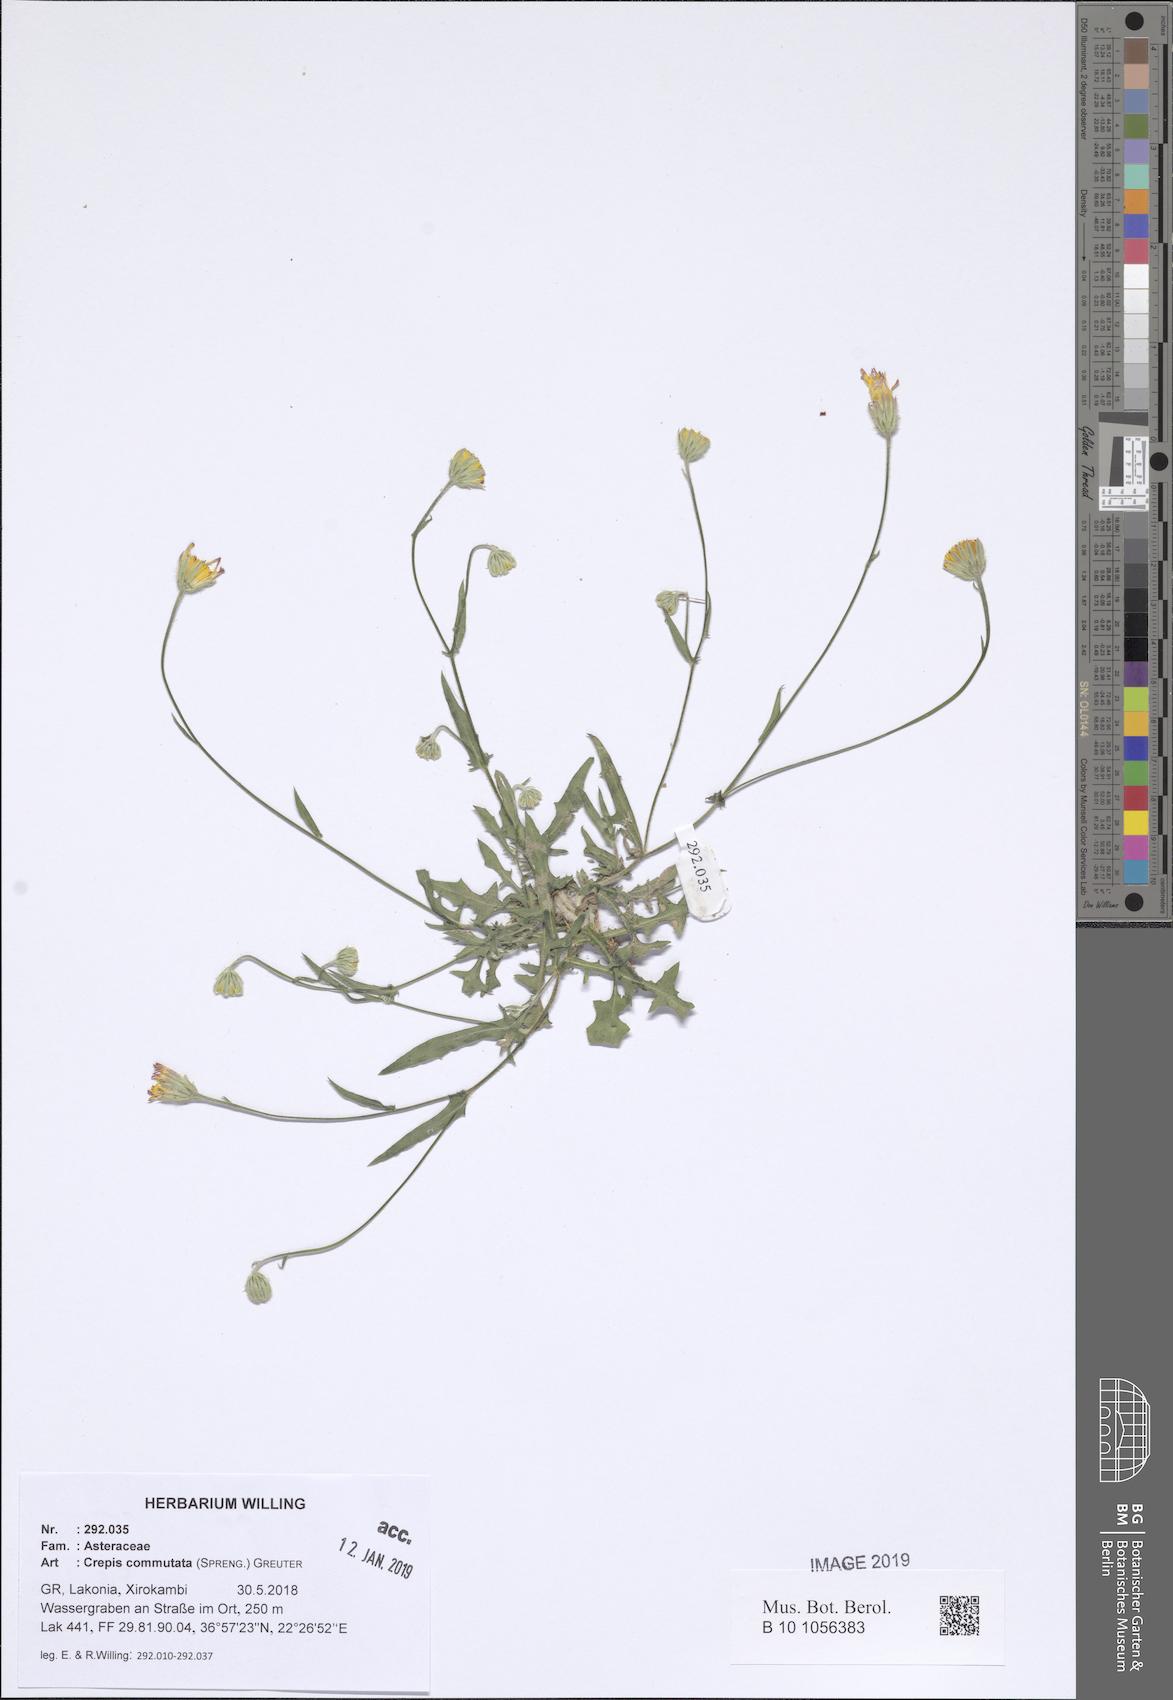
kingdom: Plantae
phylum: Tracheophyta
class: Magnoliopsida
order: Asterales
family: Asteraceae
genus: Crepis
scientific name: Crepis commutata
